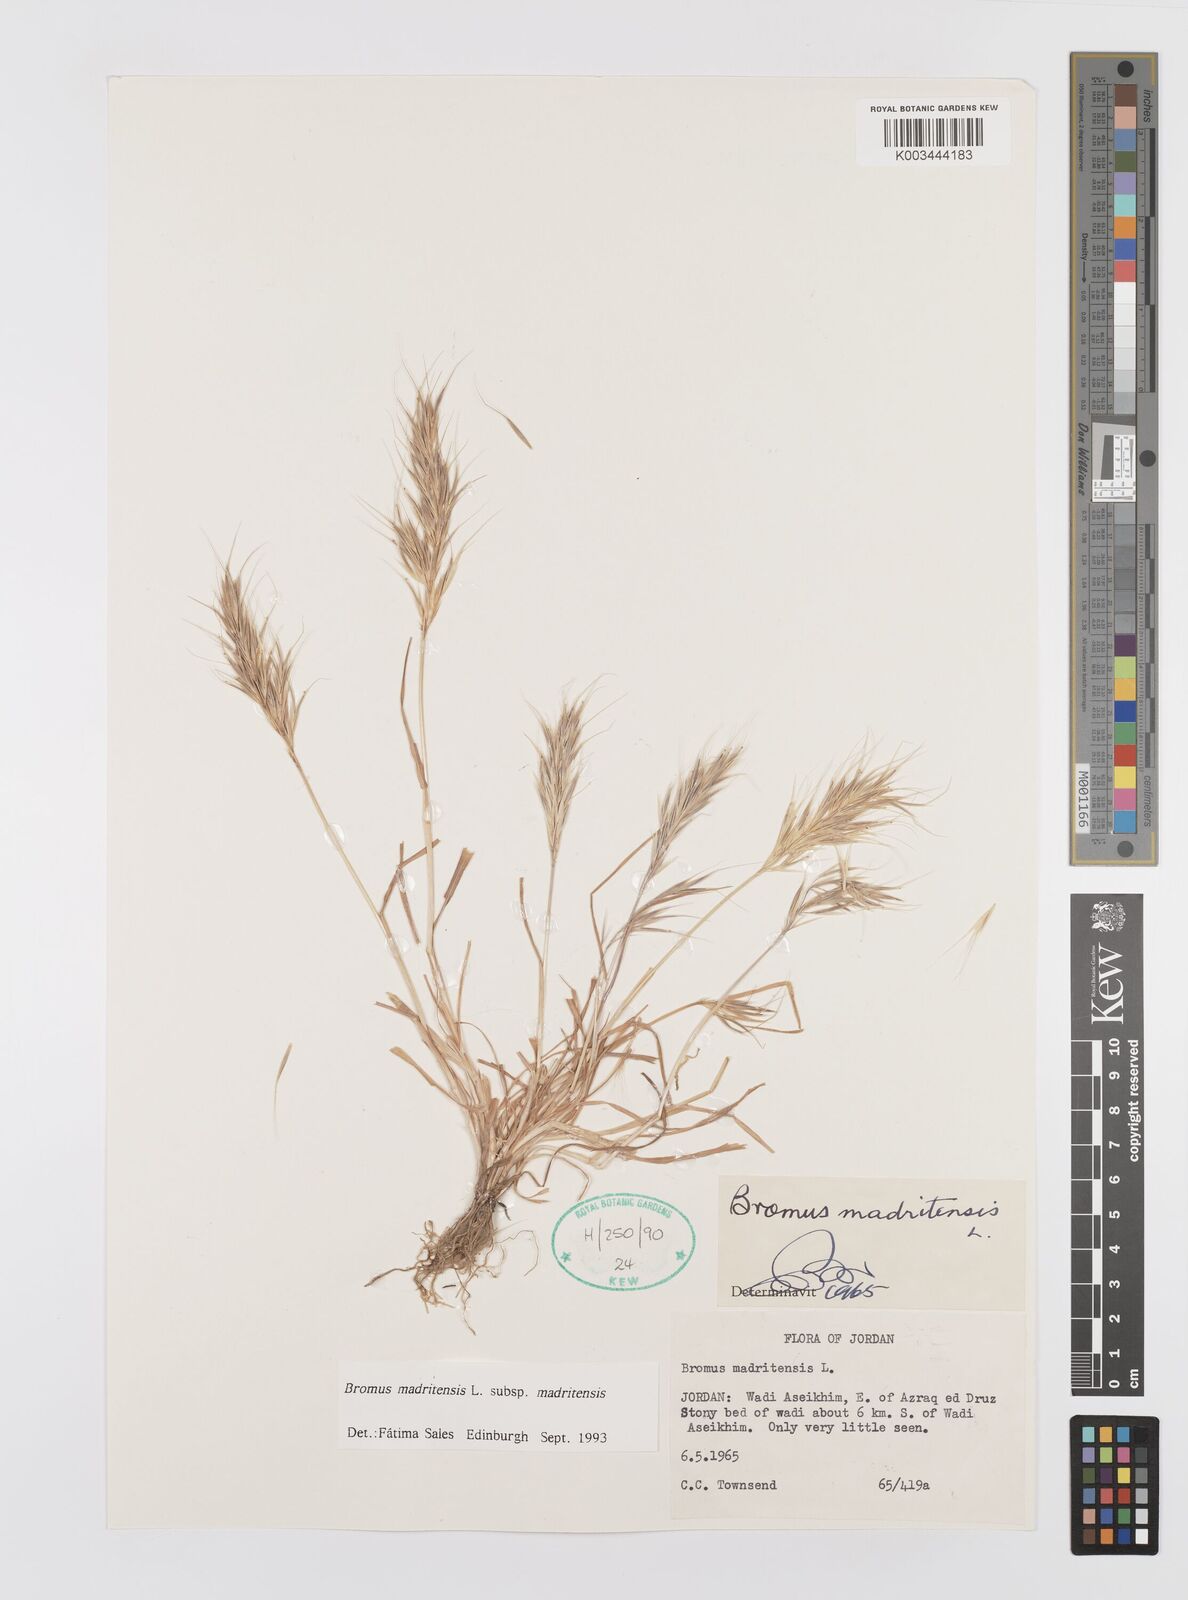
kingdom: Plantae
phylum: Tracheophyta
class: Liliopsida
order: Poales
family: Poaceae
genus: Bromus
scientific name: Bromus madritensis
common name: Compact brome
